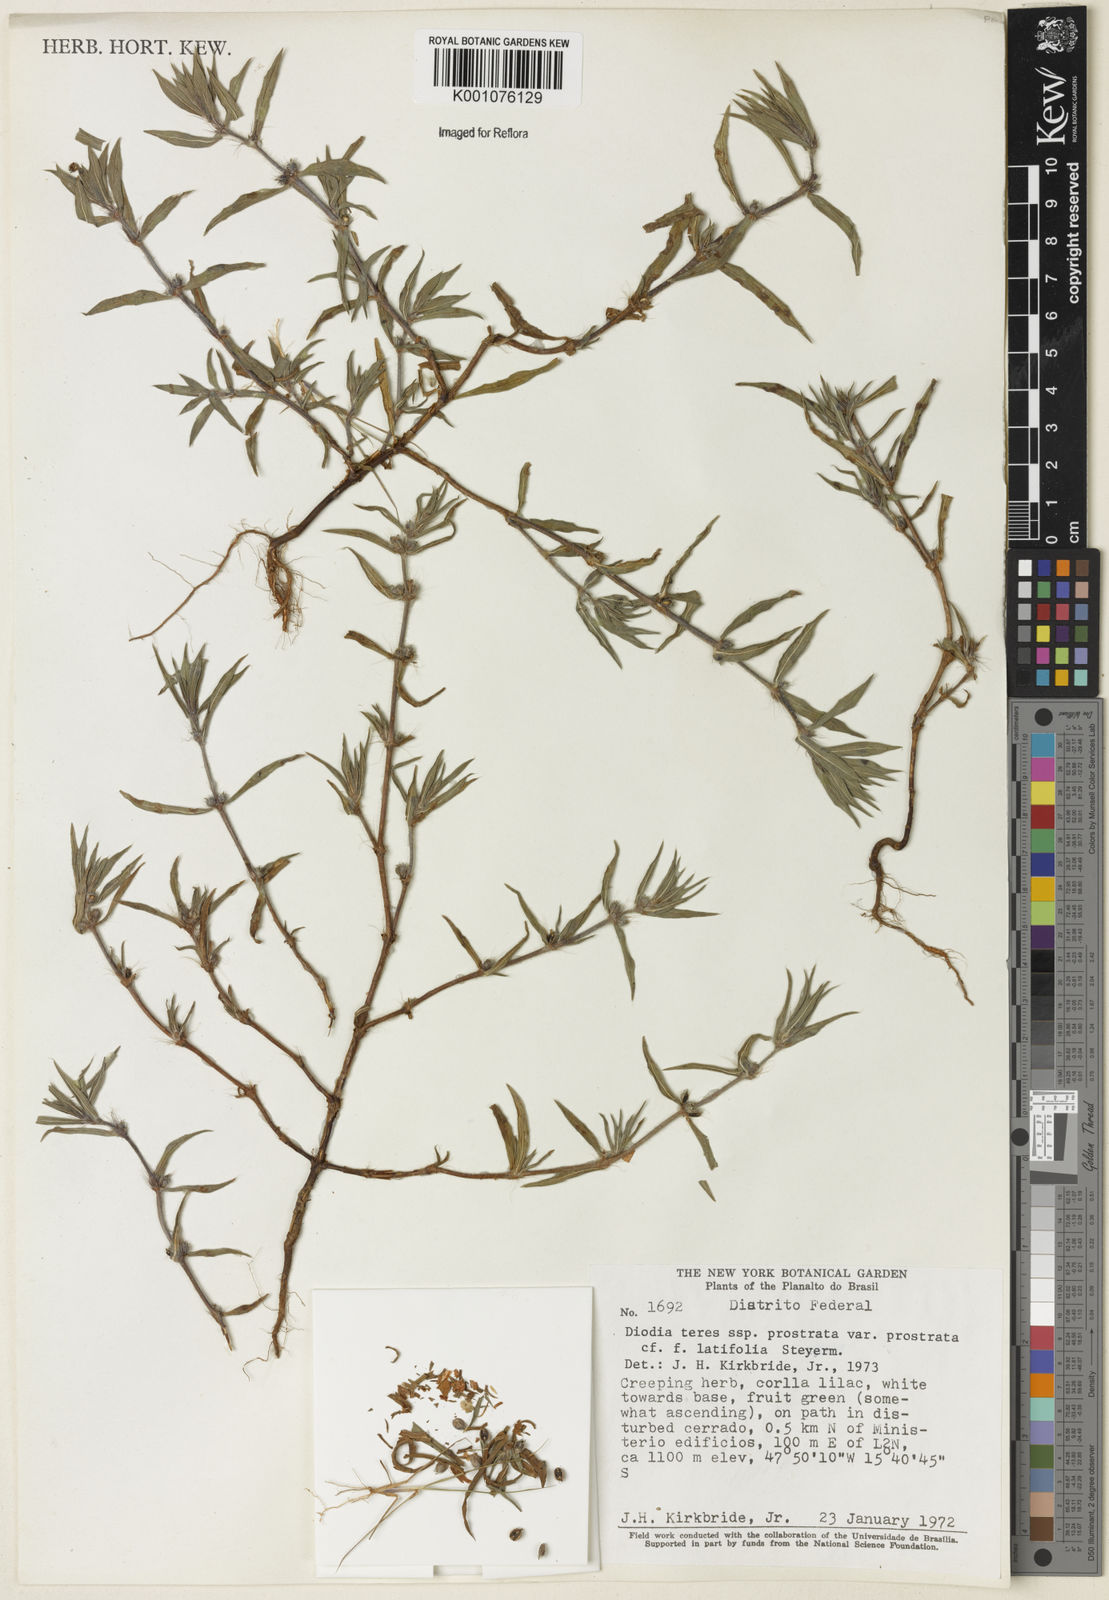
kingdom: Plantae
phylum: Tracheophyta
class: Magnoliopsida
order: Gentianales
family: Rubiaceae
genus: Hexasepalum
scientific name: Hexasepalum teres
